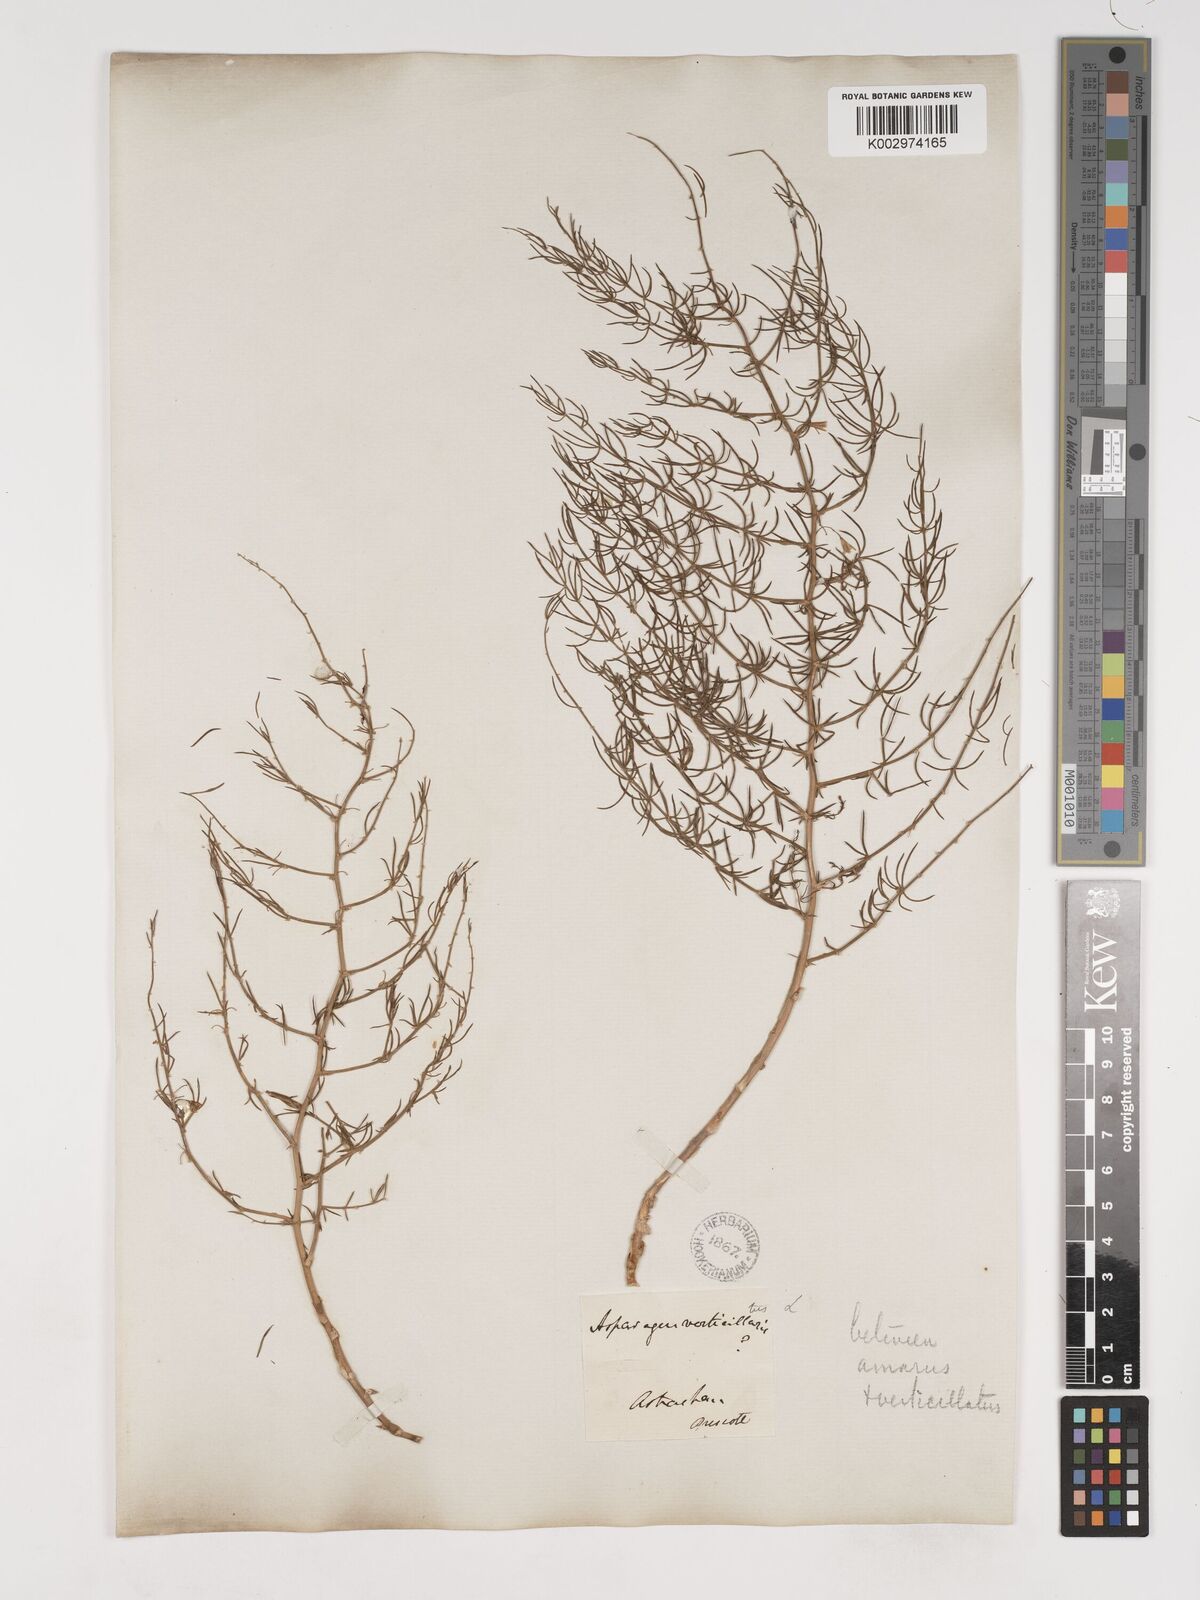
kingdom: Plantae
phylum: Tracheophyta
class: Liliopsida
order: Asparagales
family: Asparagaceae
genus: Asparagus
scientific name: Asparagus
